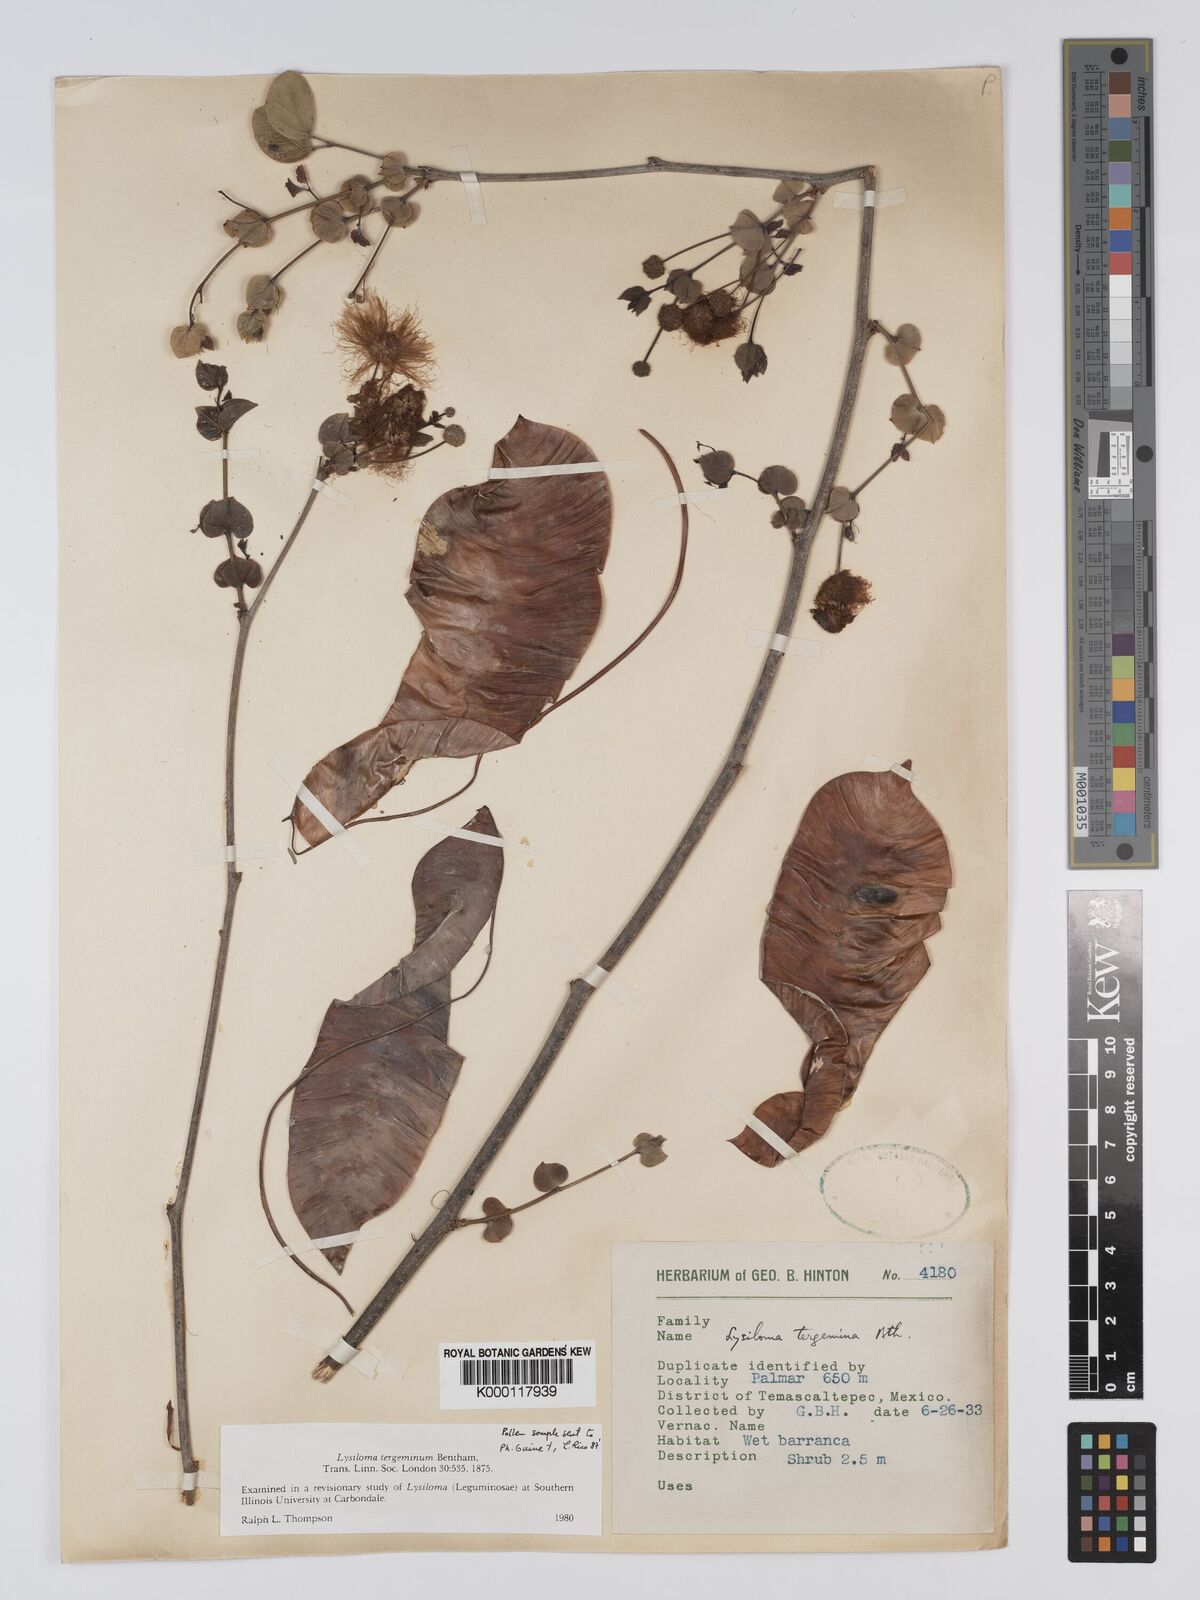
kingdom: Plantae
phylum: Tracheophyta
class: Magnoliopsida
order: Fabales
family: Fabaceae
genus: Lysiloma
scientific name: Lysiloma tergeminum
